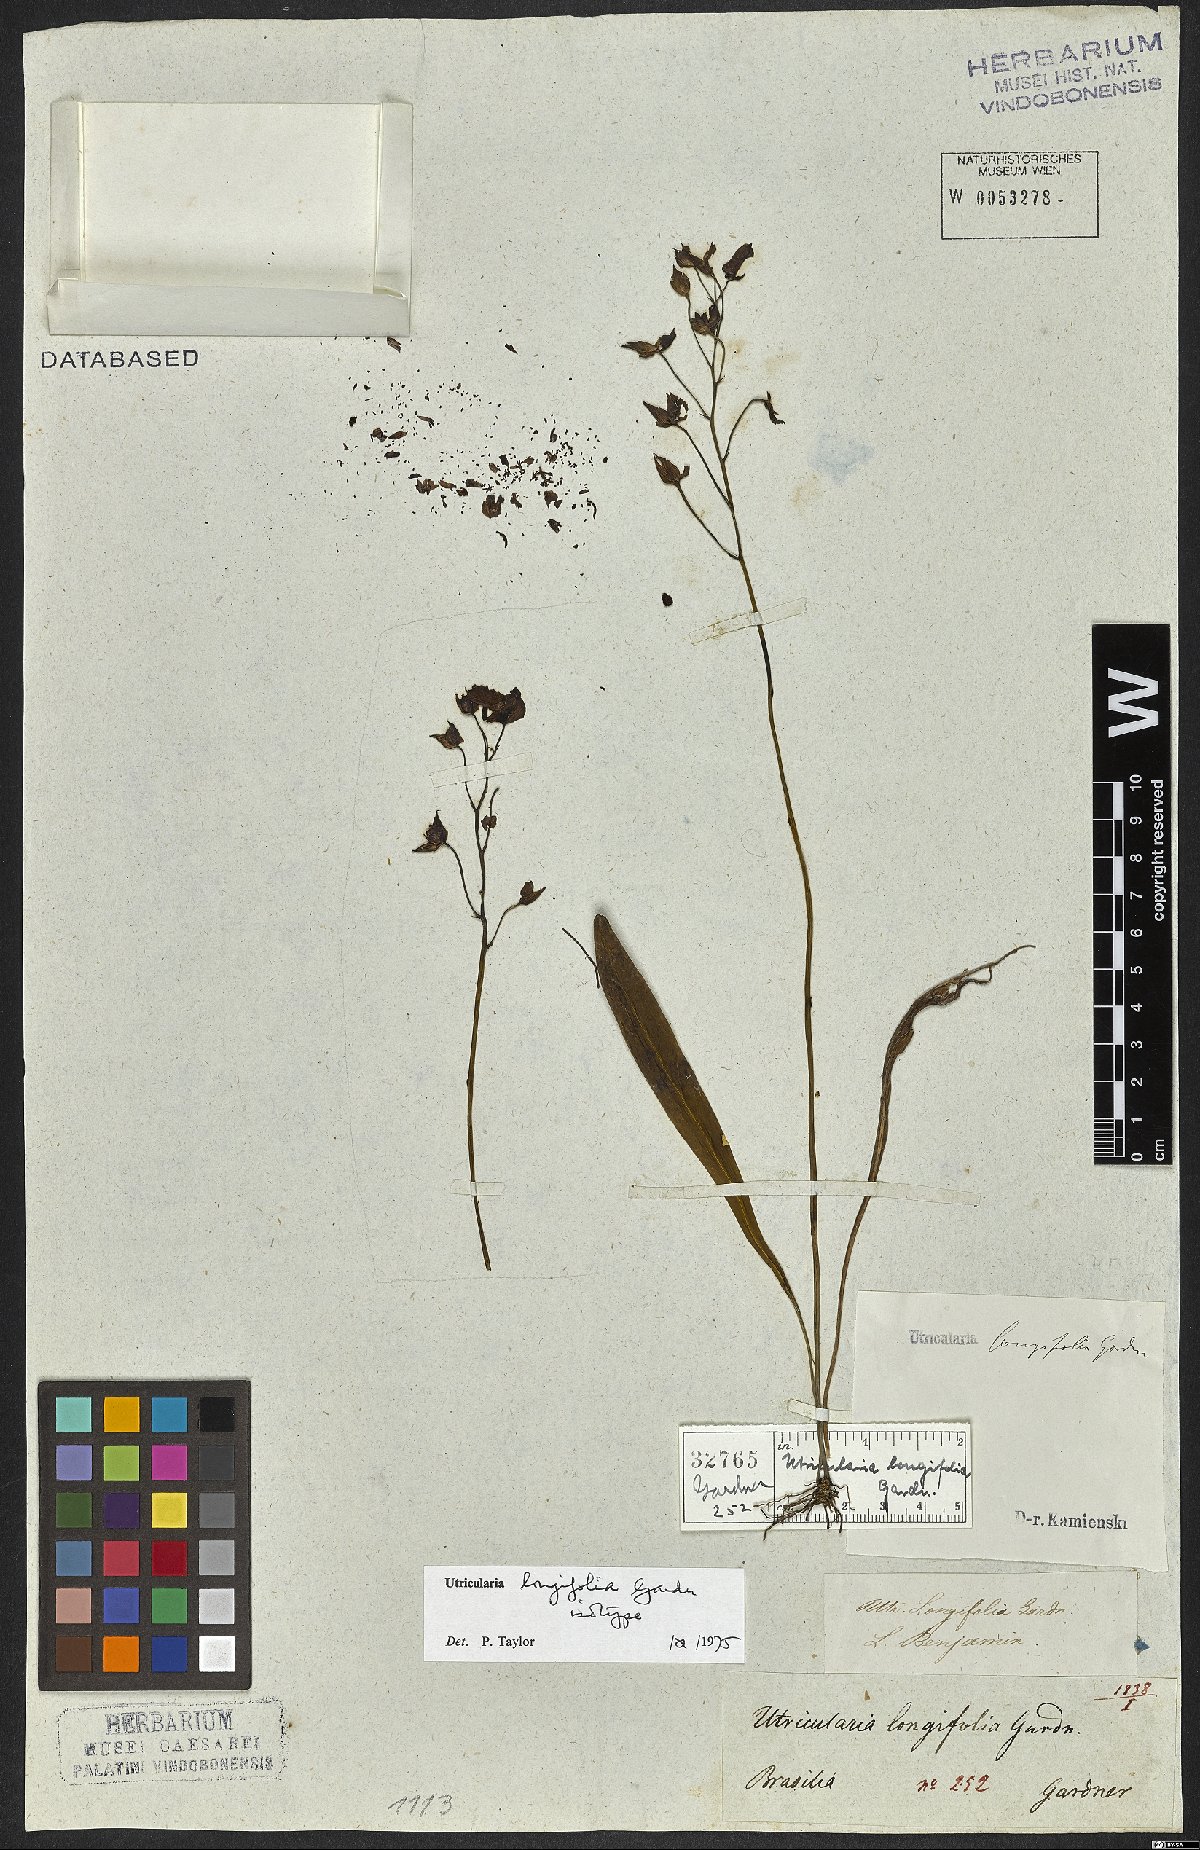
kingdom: Plantae
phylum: Tracheophyta
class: Magnoliopsida
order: Lamiales
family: Lentibulariaceae
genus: Utricularia
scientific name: Utricularia longifolia
